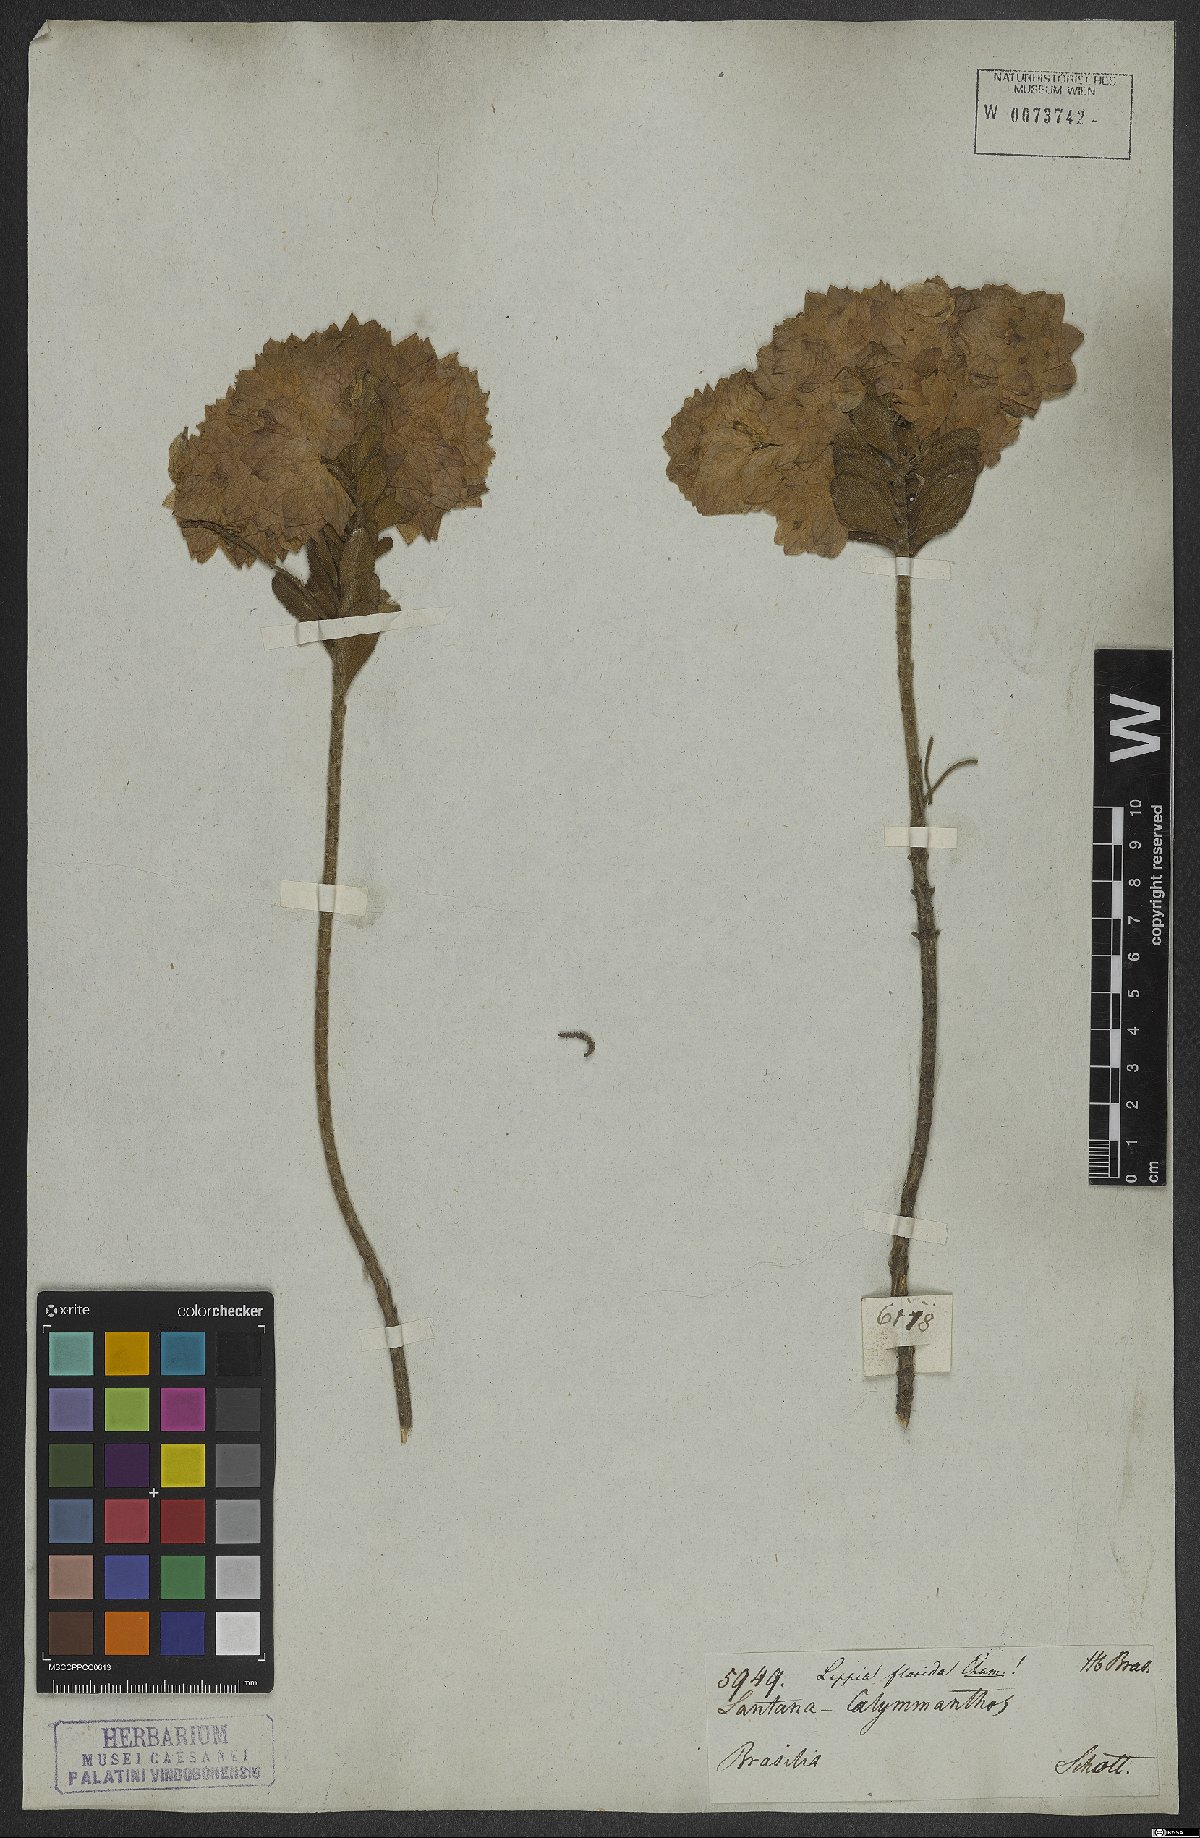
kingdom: Plantae
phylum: Tracheophyta
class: Magnoliopsida
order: Lamiales
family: Verbenaceae
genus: Lippia
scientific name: Lippia florida
